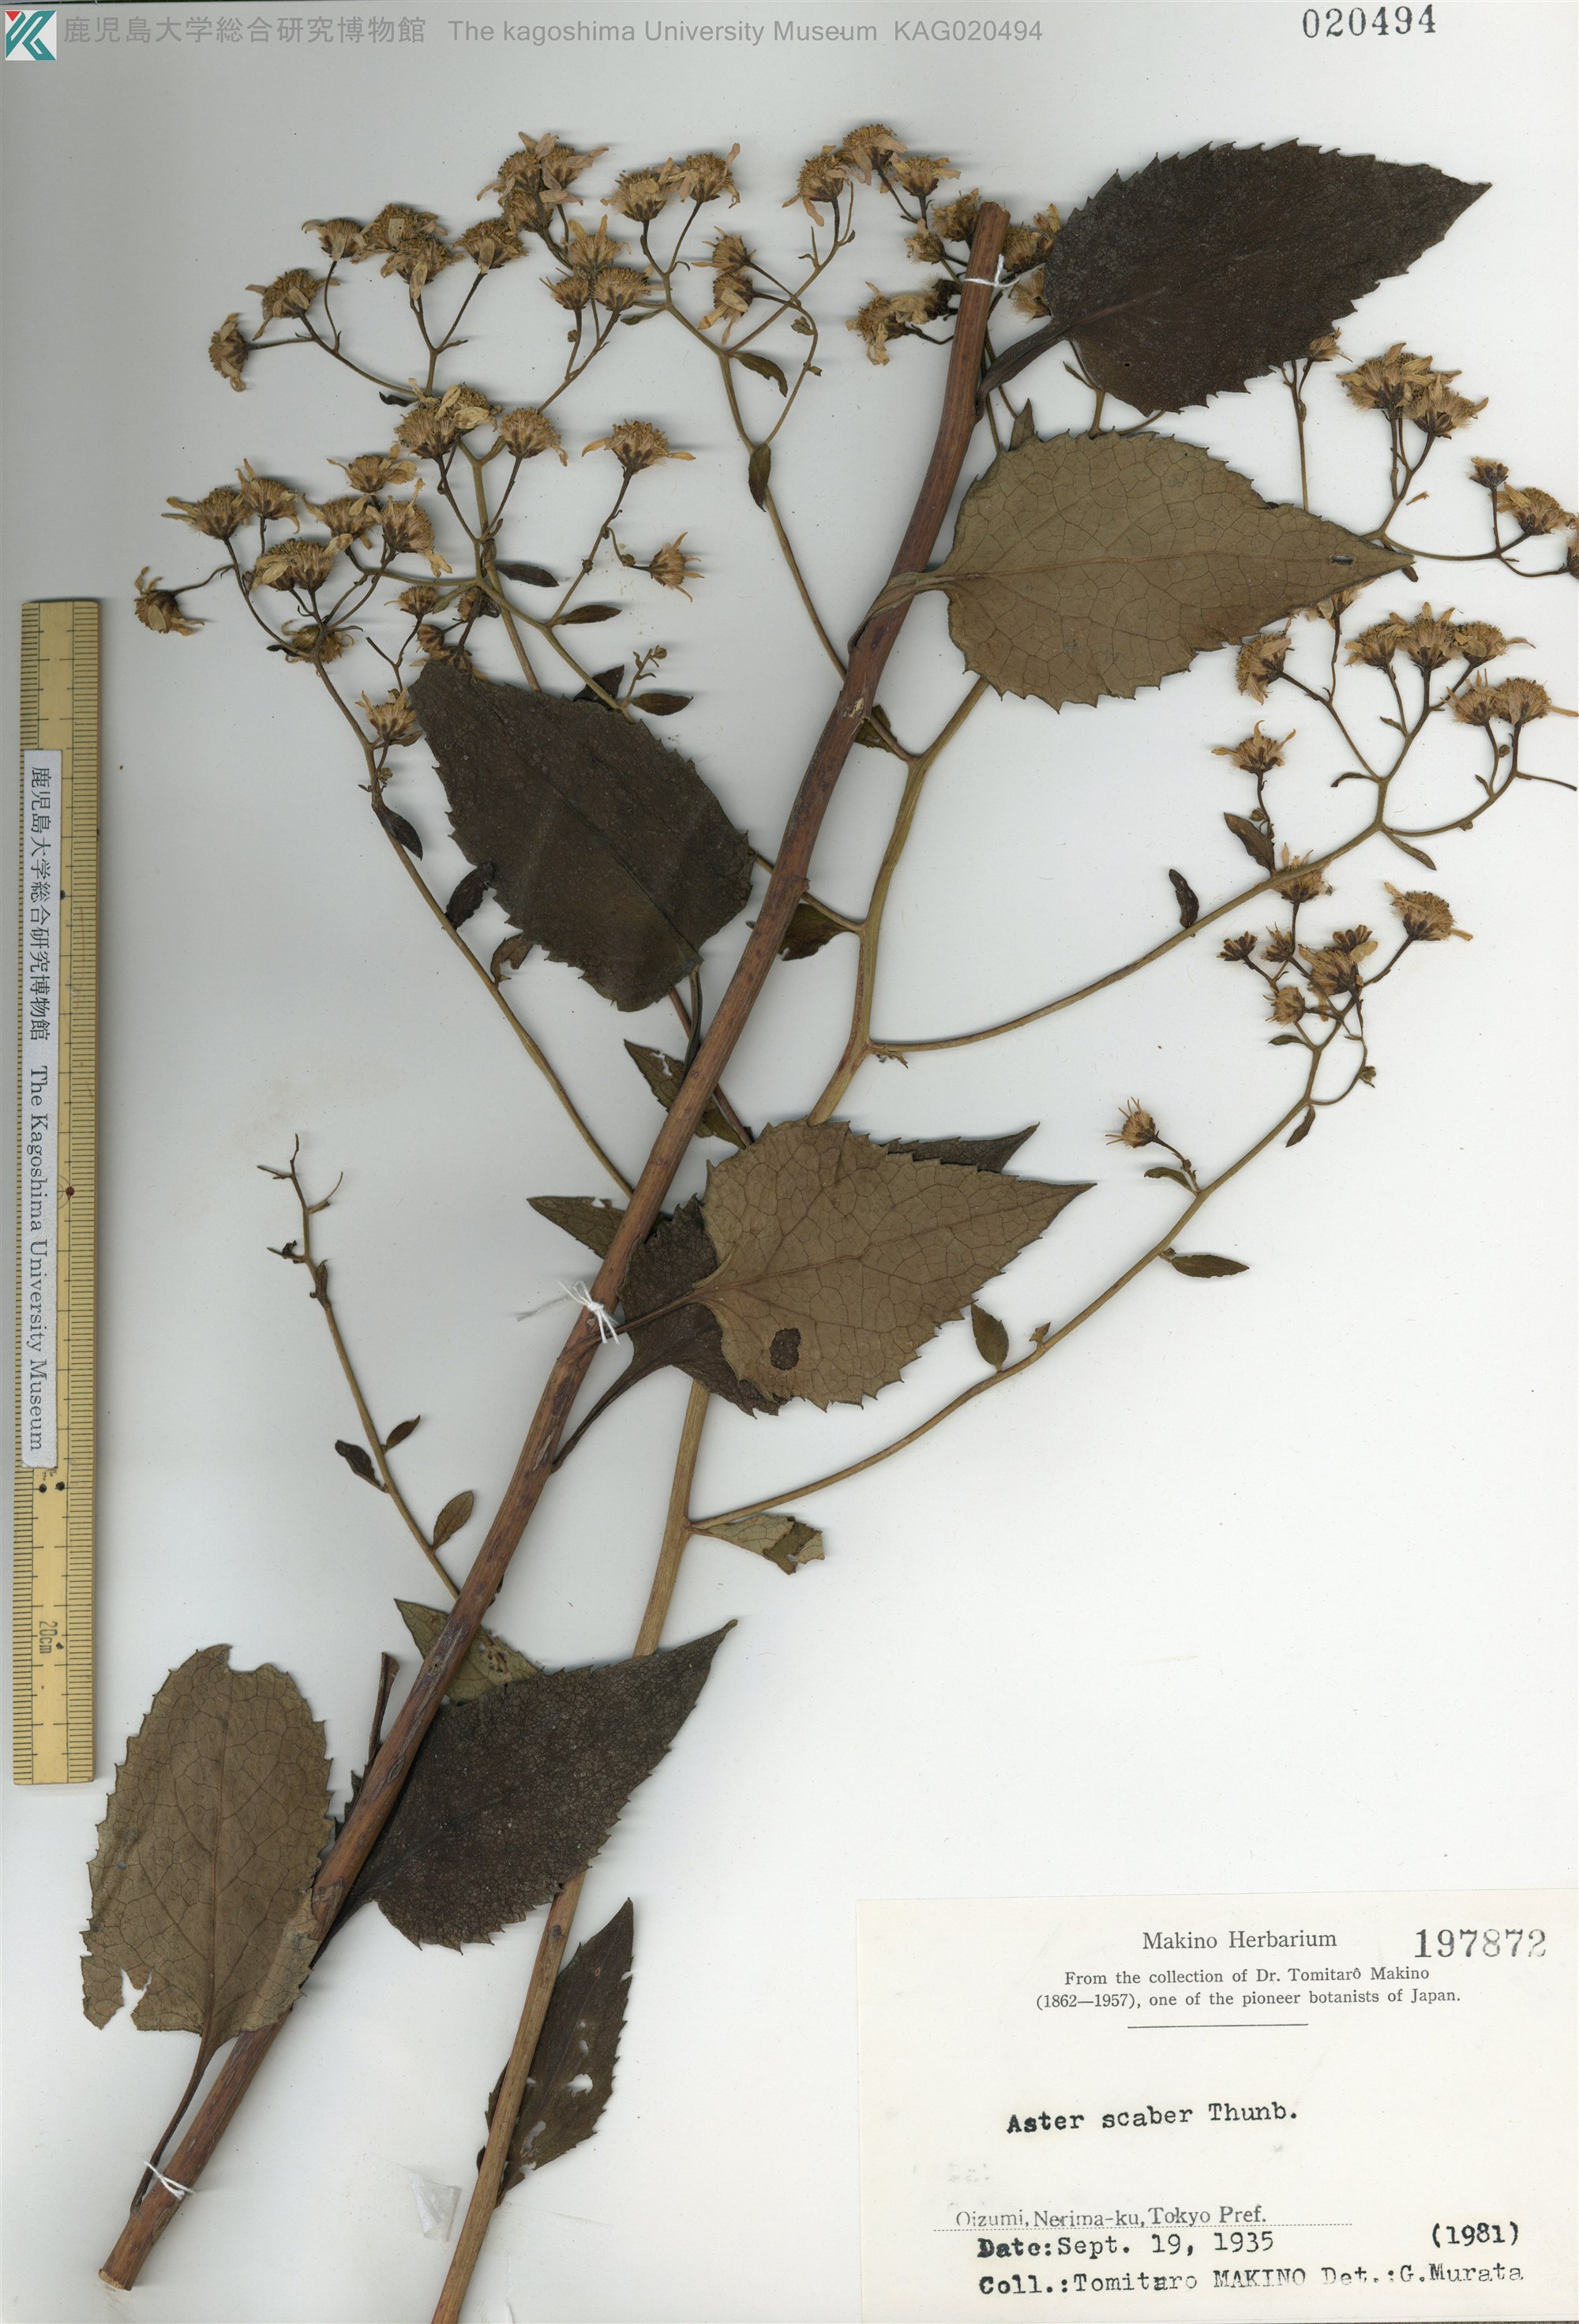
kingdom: Plantae
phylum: Tracheophyta
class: Magnoliopsida
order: Asterales
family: Asteraceae
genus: Cardiagyris
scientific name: Cardiagyris scabra
